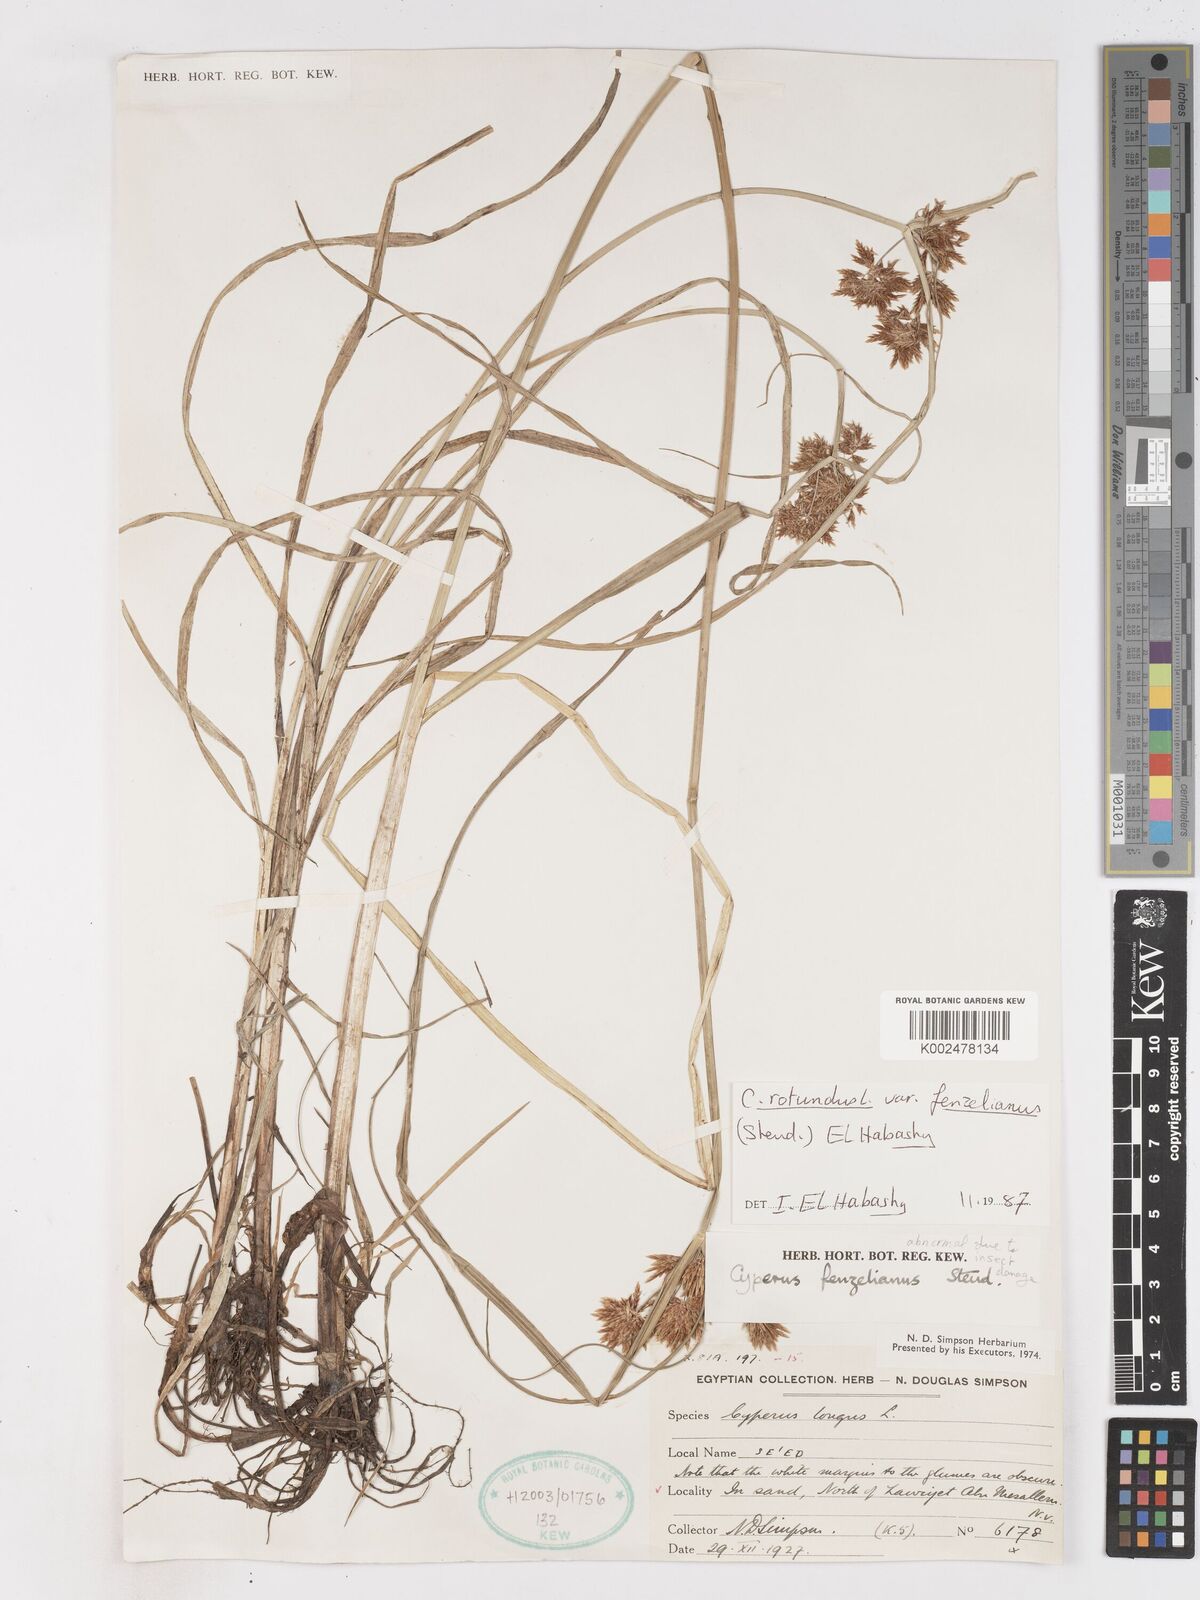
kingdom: Plantae
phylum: Tracheophyta
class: Liliopsida
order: Poales
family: Cyperaceae
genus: Cyperus
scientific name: Cyperus rotundus
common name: Nutgrass
